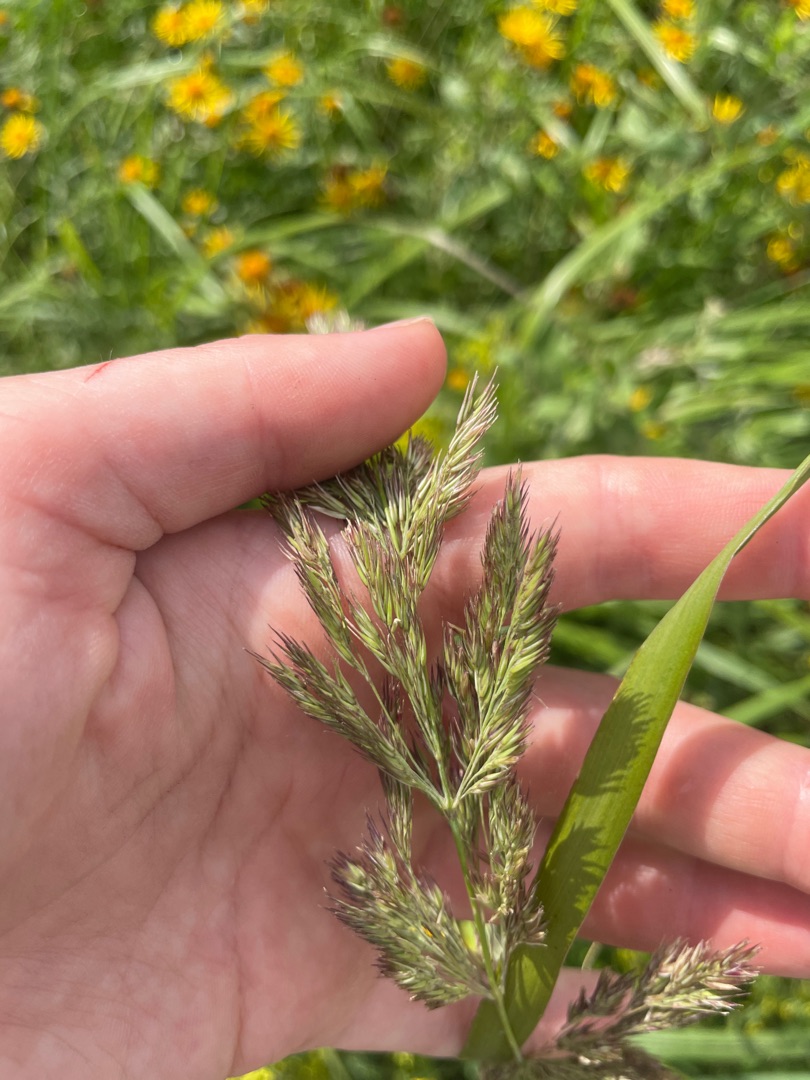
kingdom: Plantae
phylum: Tracheophyta
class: Liliopsida
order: Poales
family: Poaceae
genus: Calamagrostis
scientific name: Calamagrostis epigejos
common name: Bjerg-rørhvene
